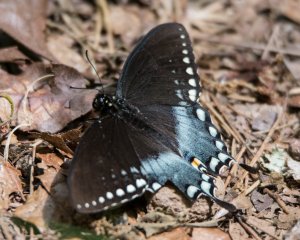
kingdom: Animalia
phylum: Arthropoda
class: Insecta
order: Lepidoptera
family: Papilionidae
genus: Pterourus
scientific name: Pterourus troilus
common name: Spicebush Swallowtail
